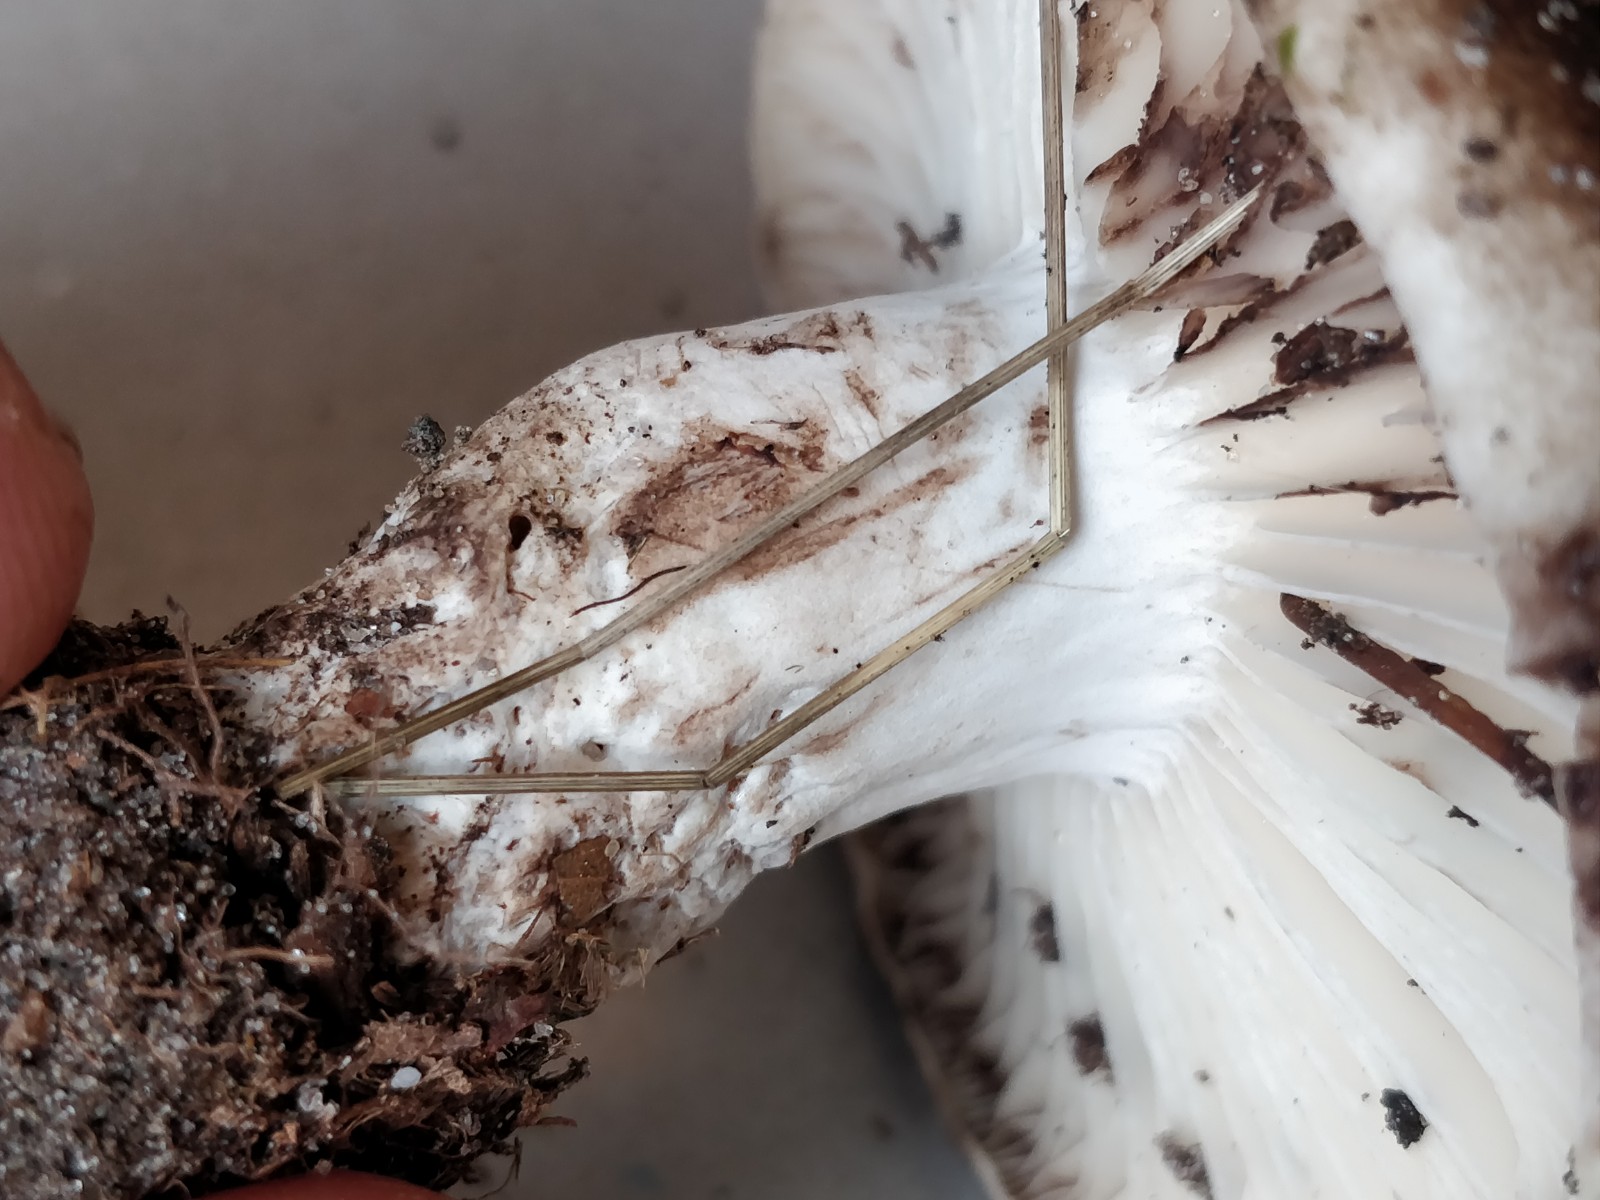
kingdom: Fungi
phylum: Basidiomycota
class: Agaricomycetes
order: Russulales
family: Russulaceae
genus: Russula
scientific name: Russula adusta
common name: sværtende skørhat
